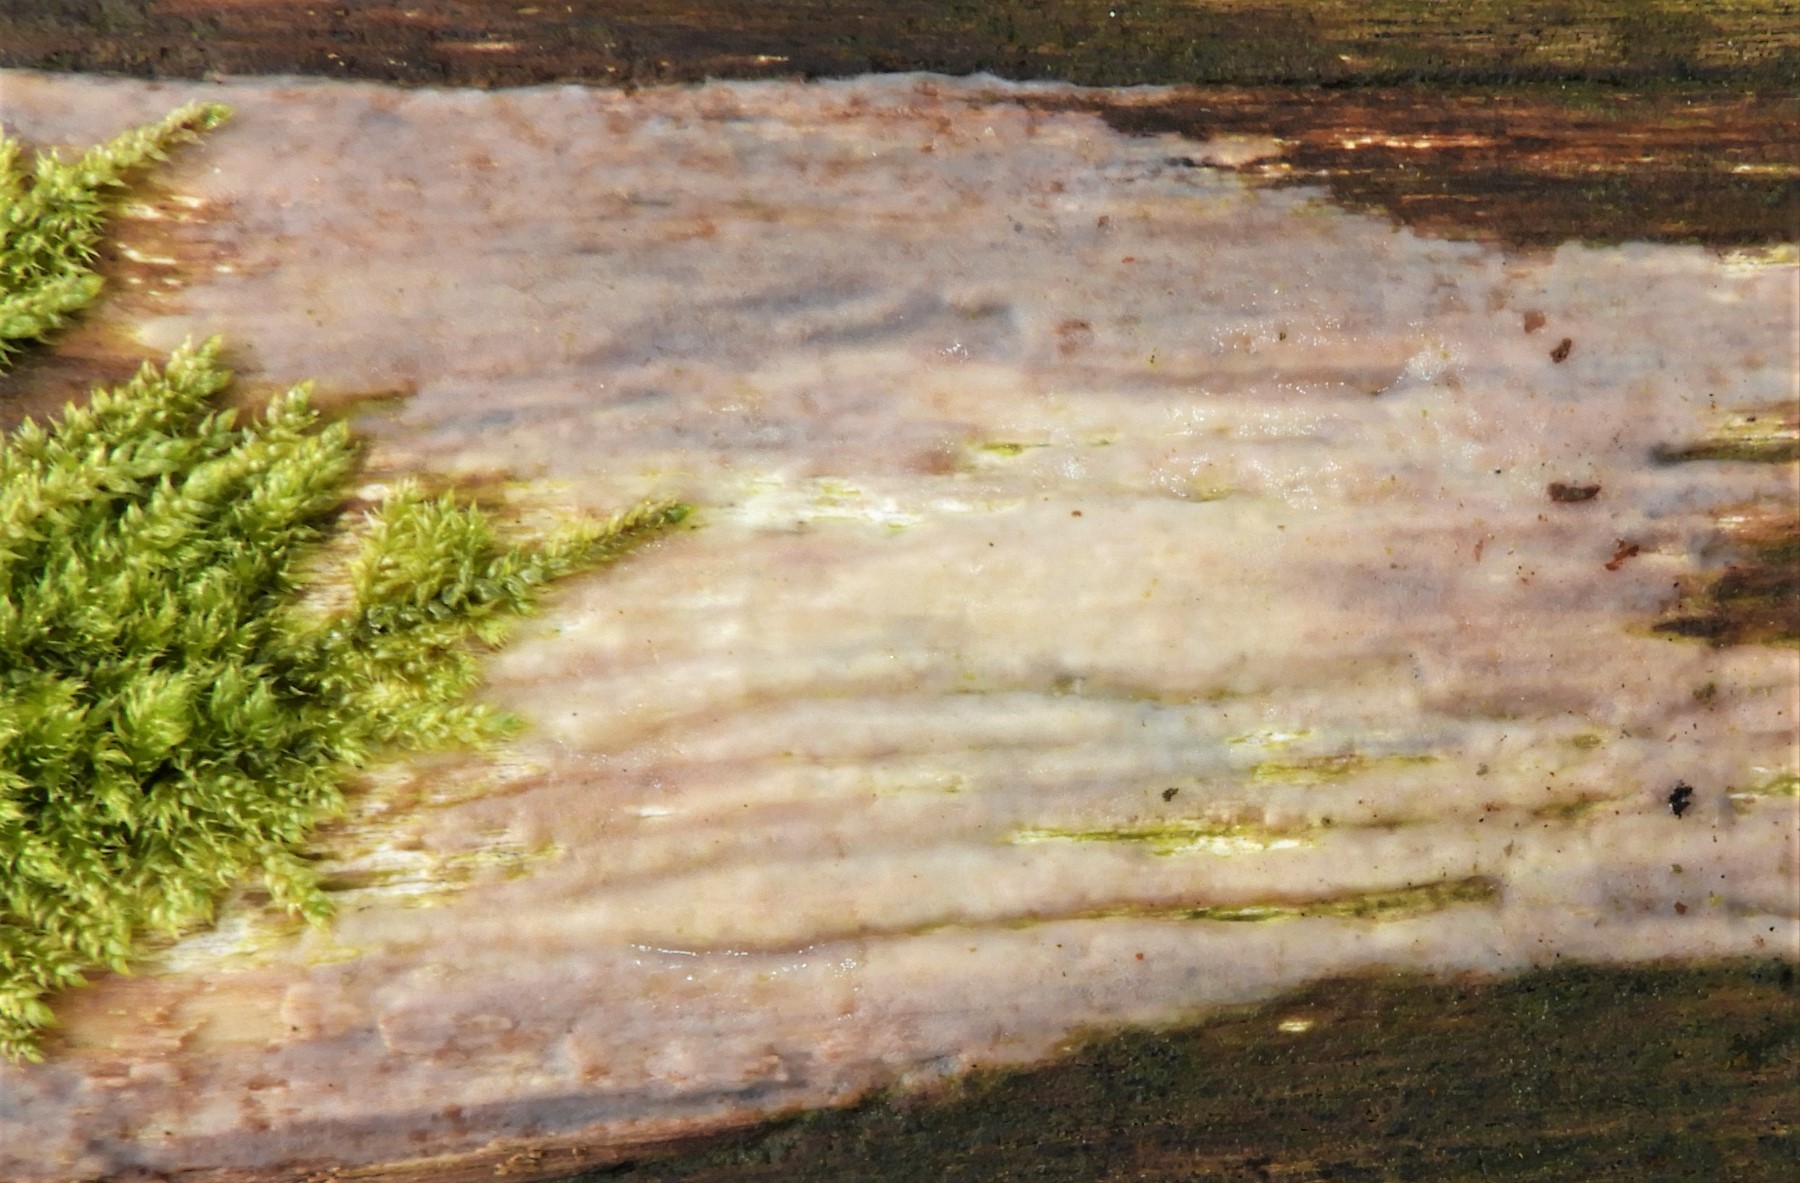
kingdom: Fungi
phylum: Basidiomycota
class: Tremellomycetes
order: Tremellales
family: Exidiaceae
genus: Exidiopsis
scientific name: Exidiopsis effusa
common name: smuk bævrehinde
